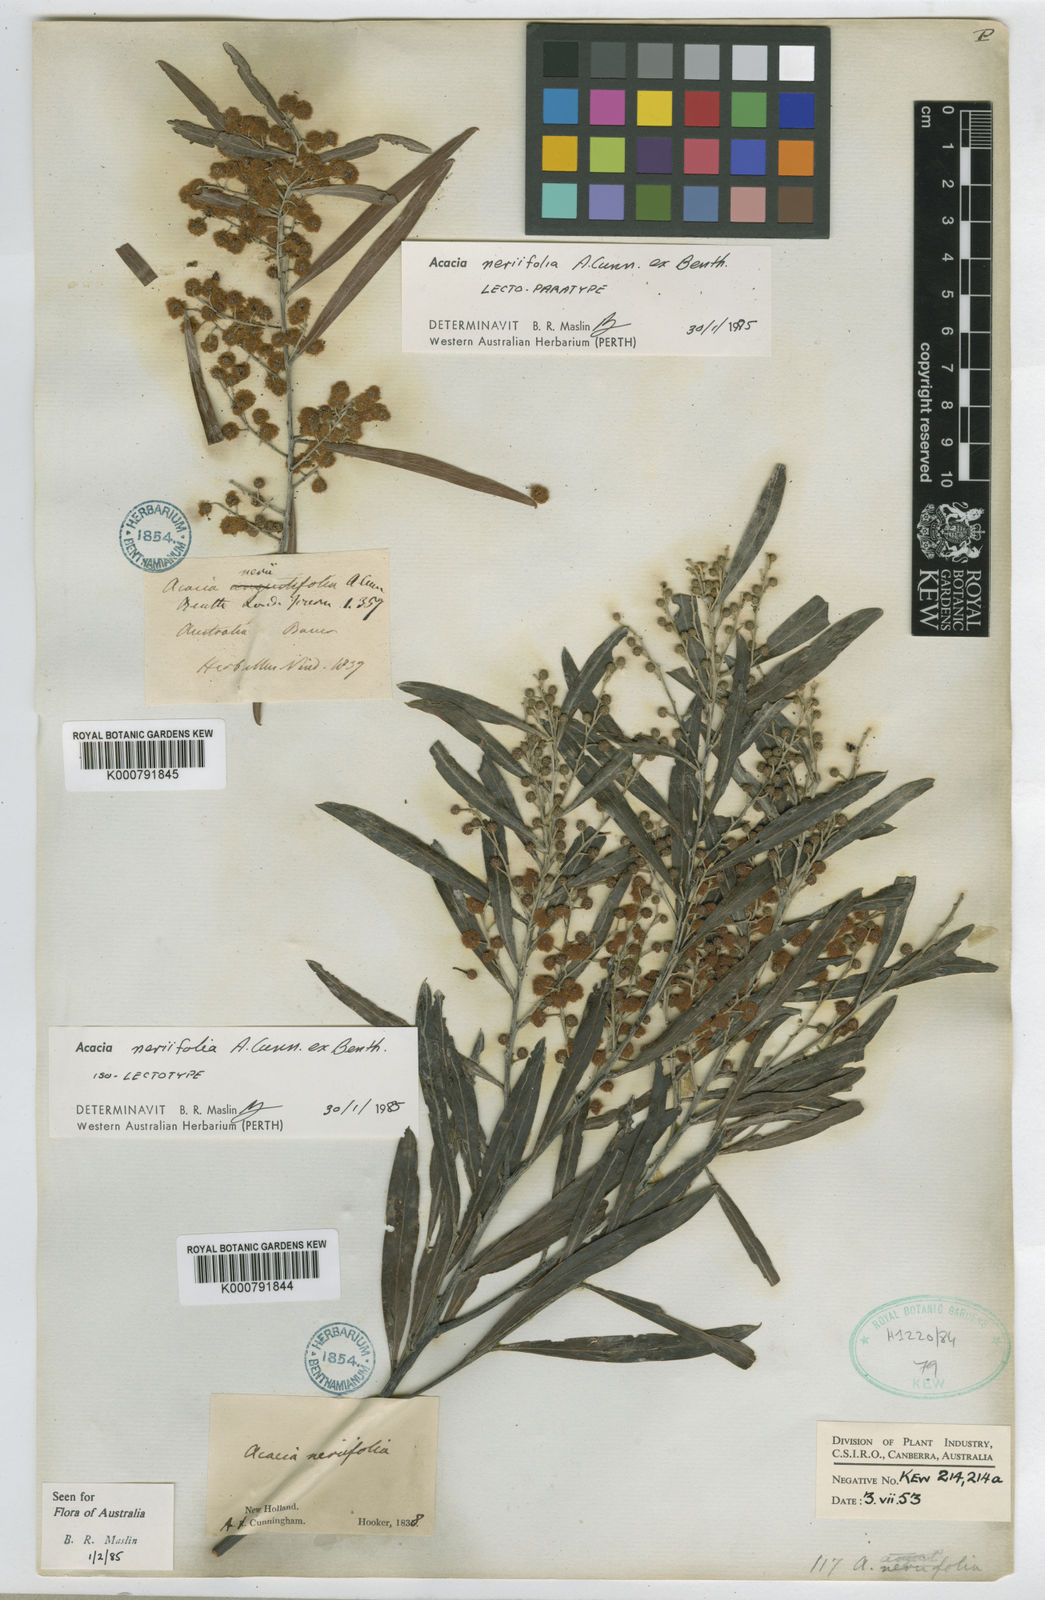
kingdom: Plantae
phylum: Tracheophyta
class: Magnoliopsida
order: Fabales
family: Fabaceae
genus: Acacia
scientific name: Acacia neriifolia
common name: Oleander wattle
